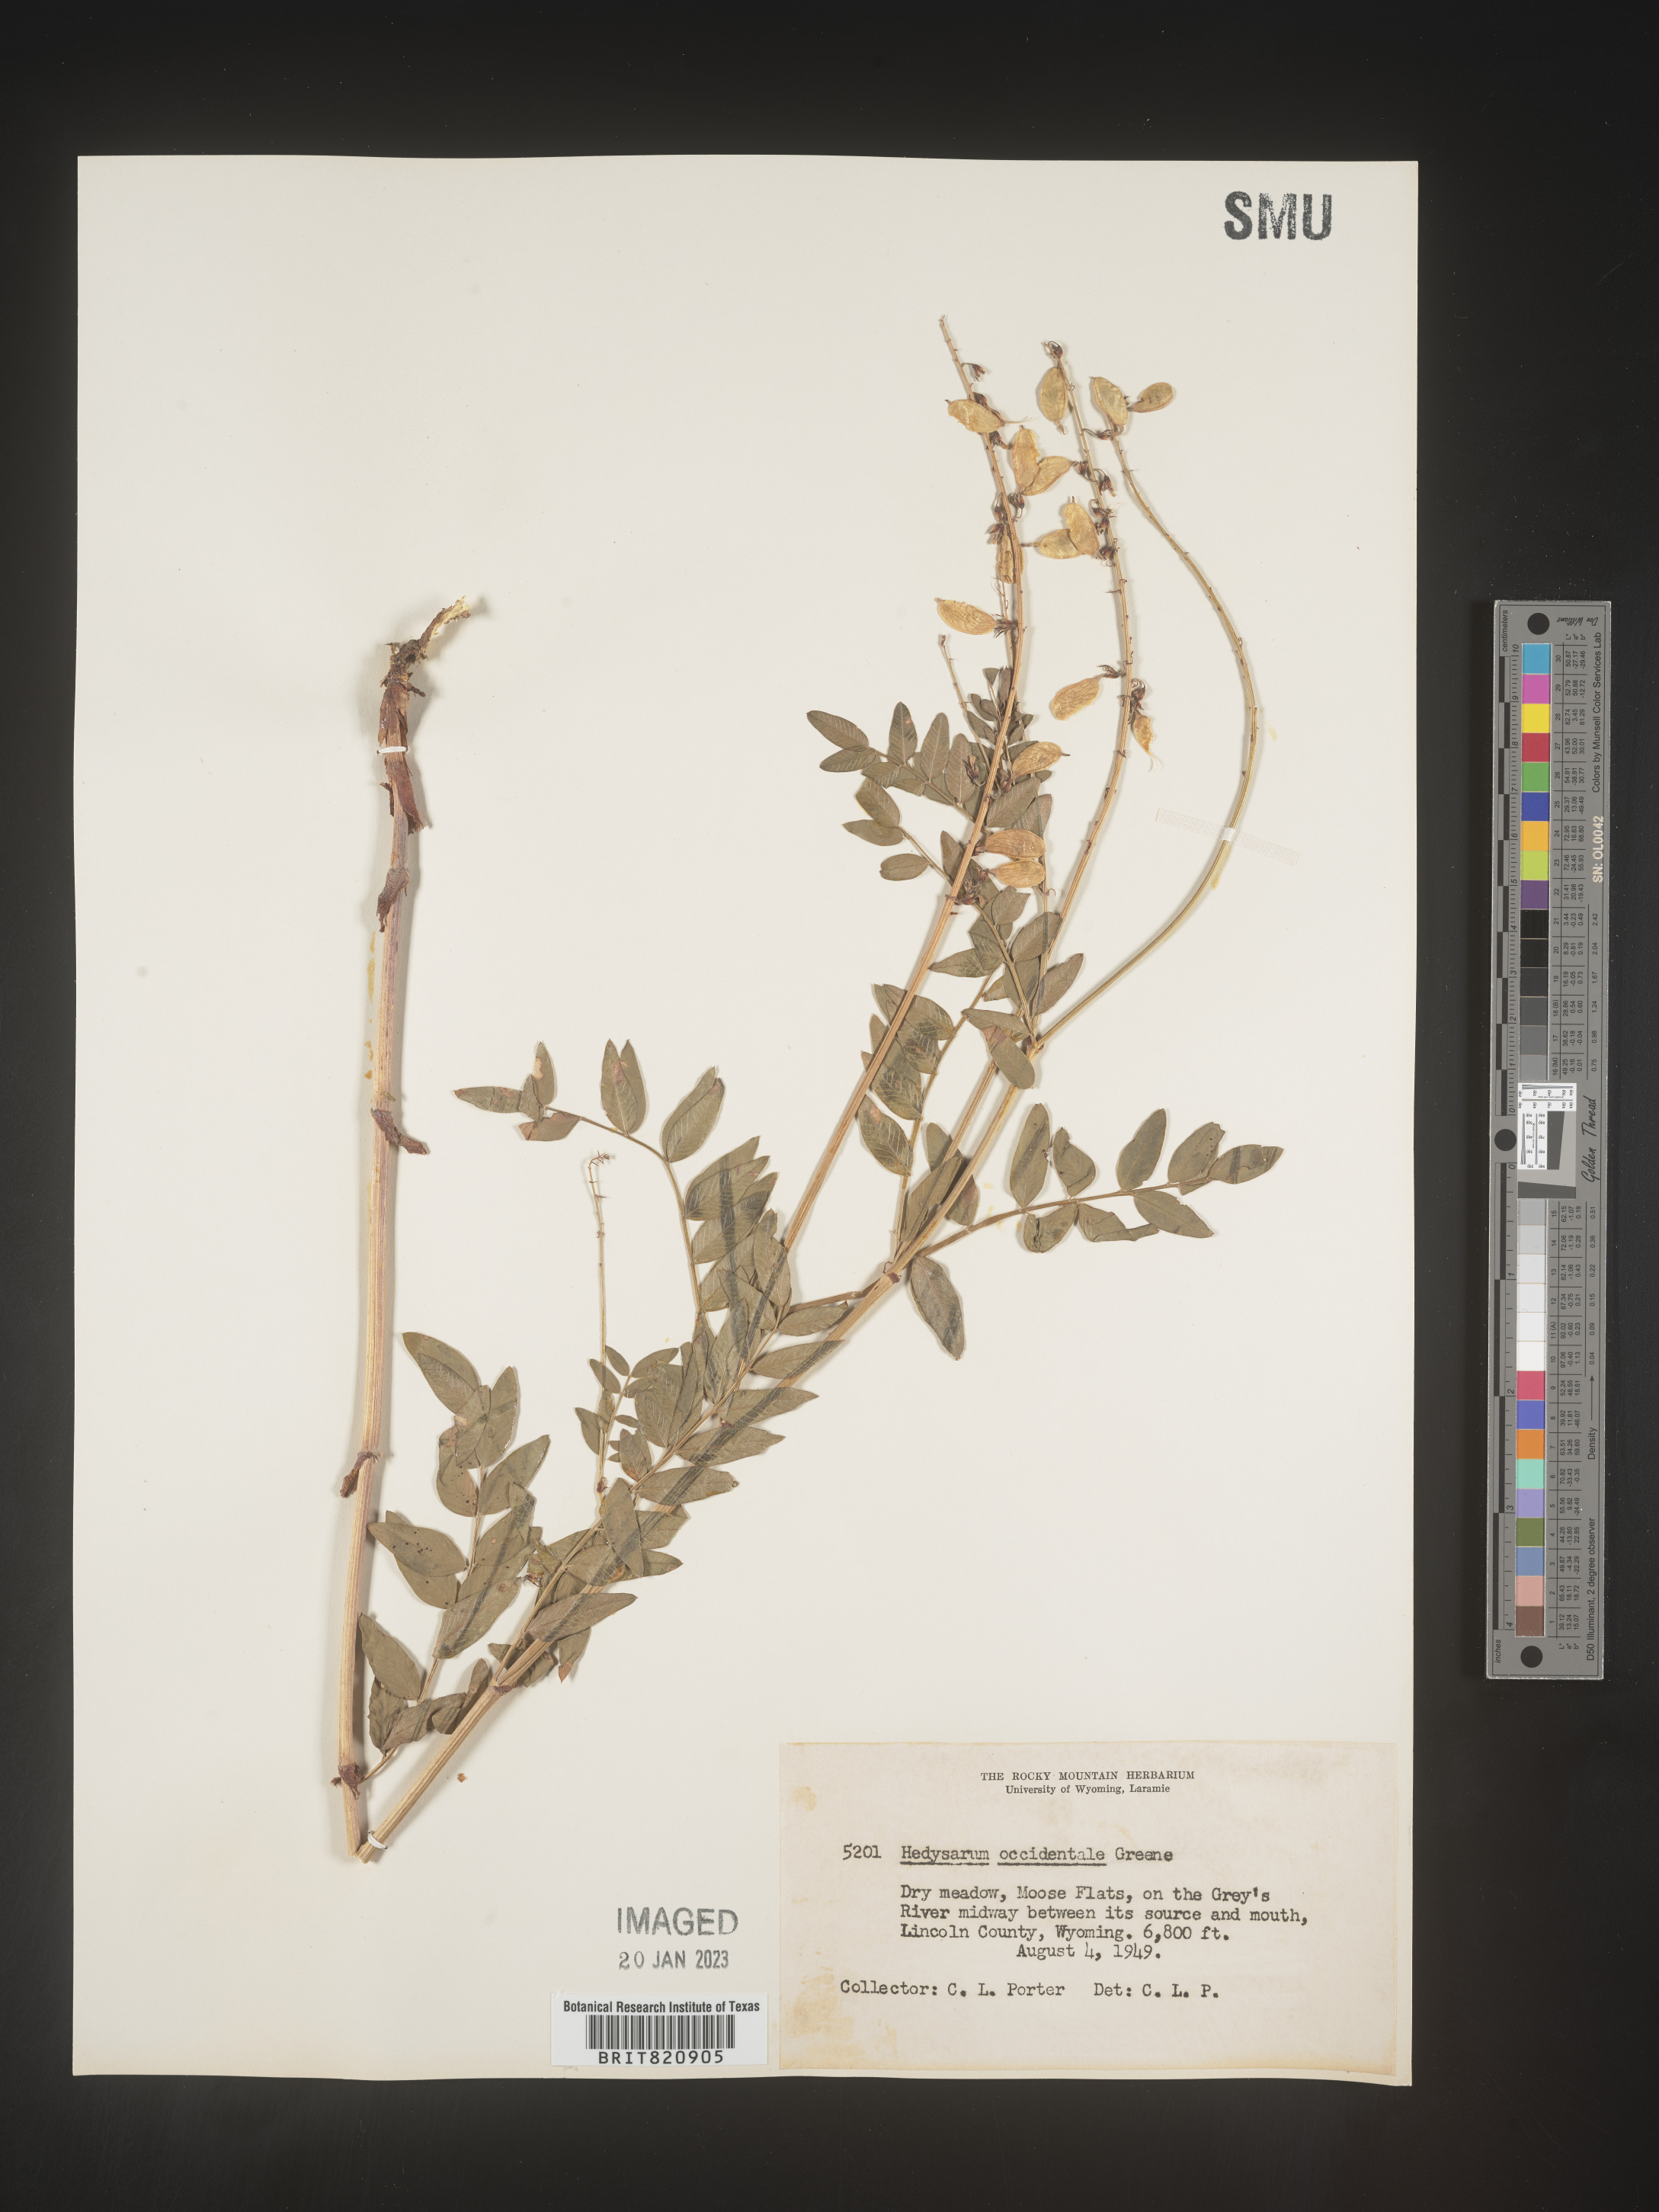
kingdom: Plantae
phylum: Tracheophyta
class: Magnoliopsida
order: Fabales
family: Fabaceae
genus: Hedysarum
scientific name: Hedysarum occidentale
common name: Western hedysarum
